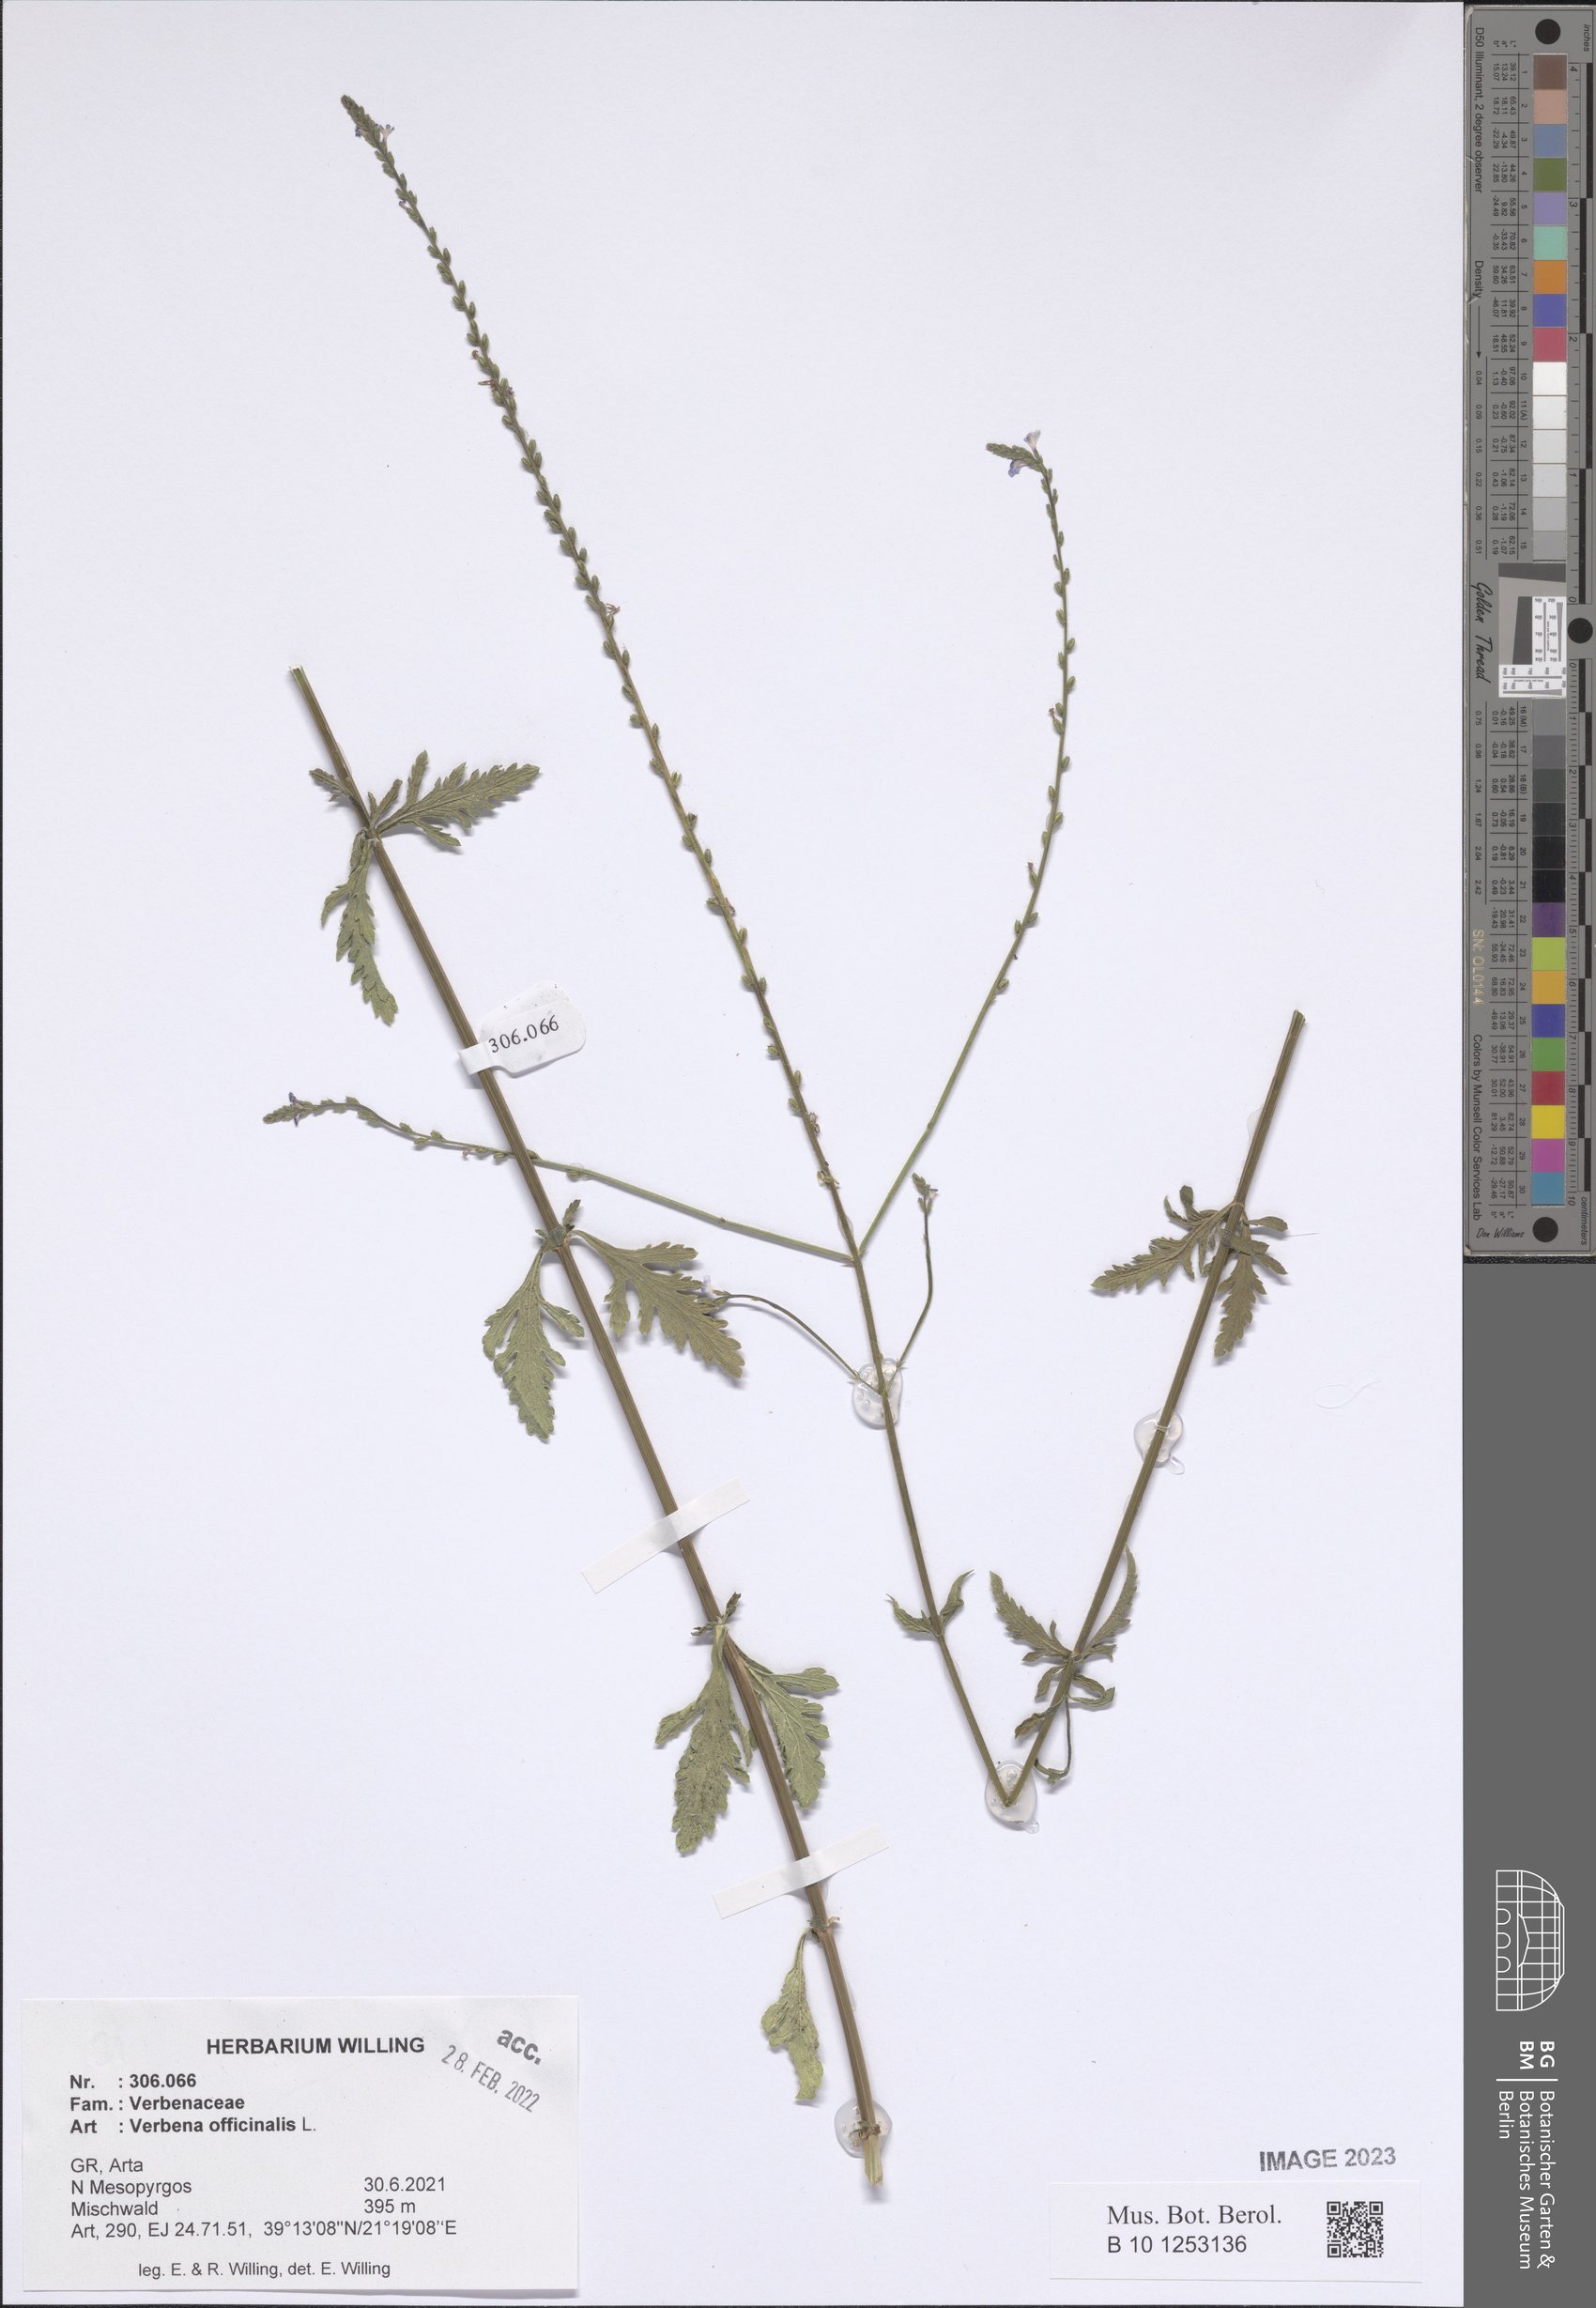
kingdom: Plantae
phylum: Tracheophyta
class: Magnoliopsida
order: Lamiales
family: Verbenaceae
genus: Verbena
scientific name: Verbena officinalis
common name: Vervain
